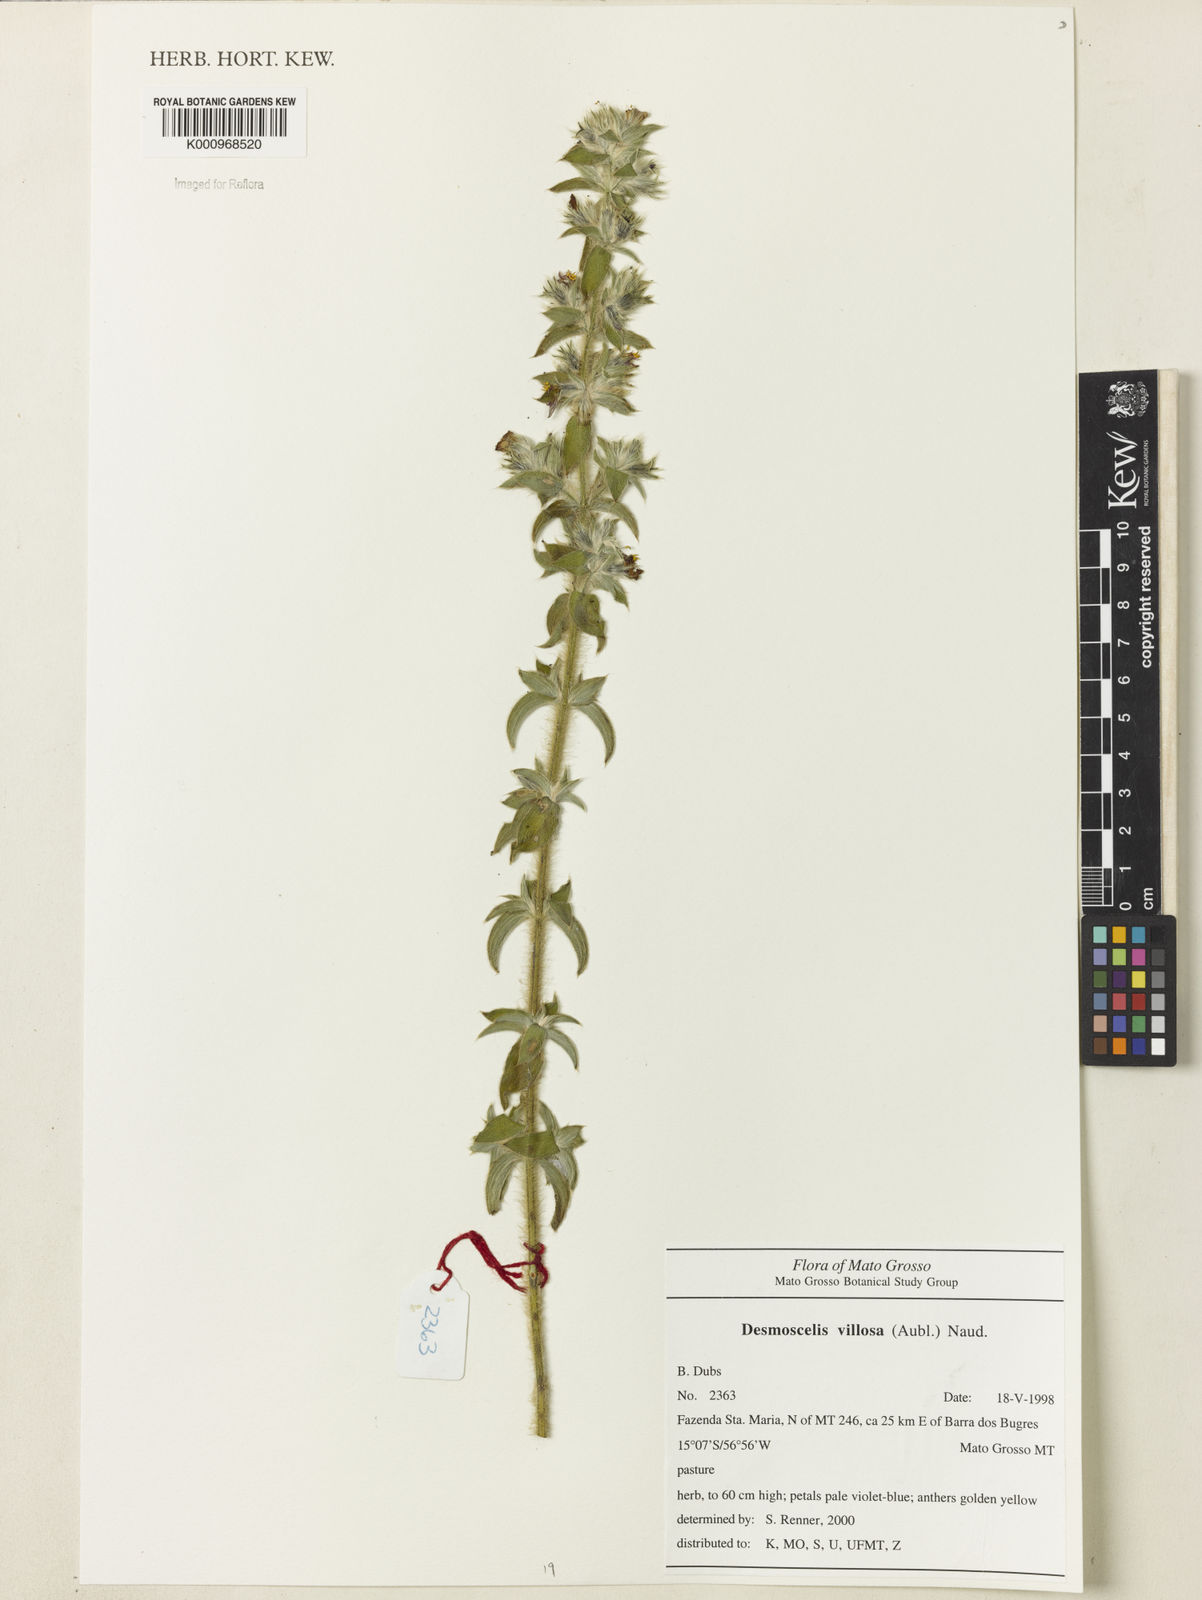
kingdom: Plantae
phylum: Tracheophyta
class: Magnoliopsida
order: Myrtales
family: Melastomataceae
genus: Desmoscelis
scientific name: Desmoscelis villosa
